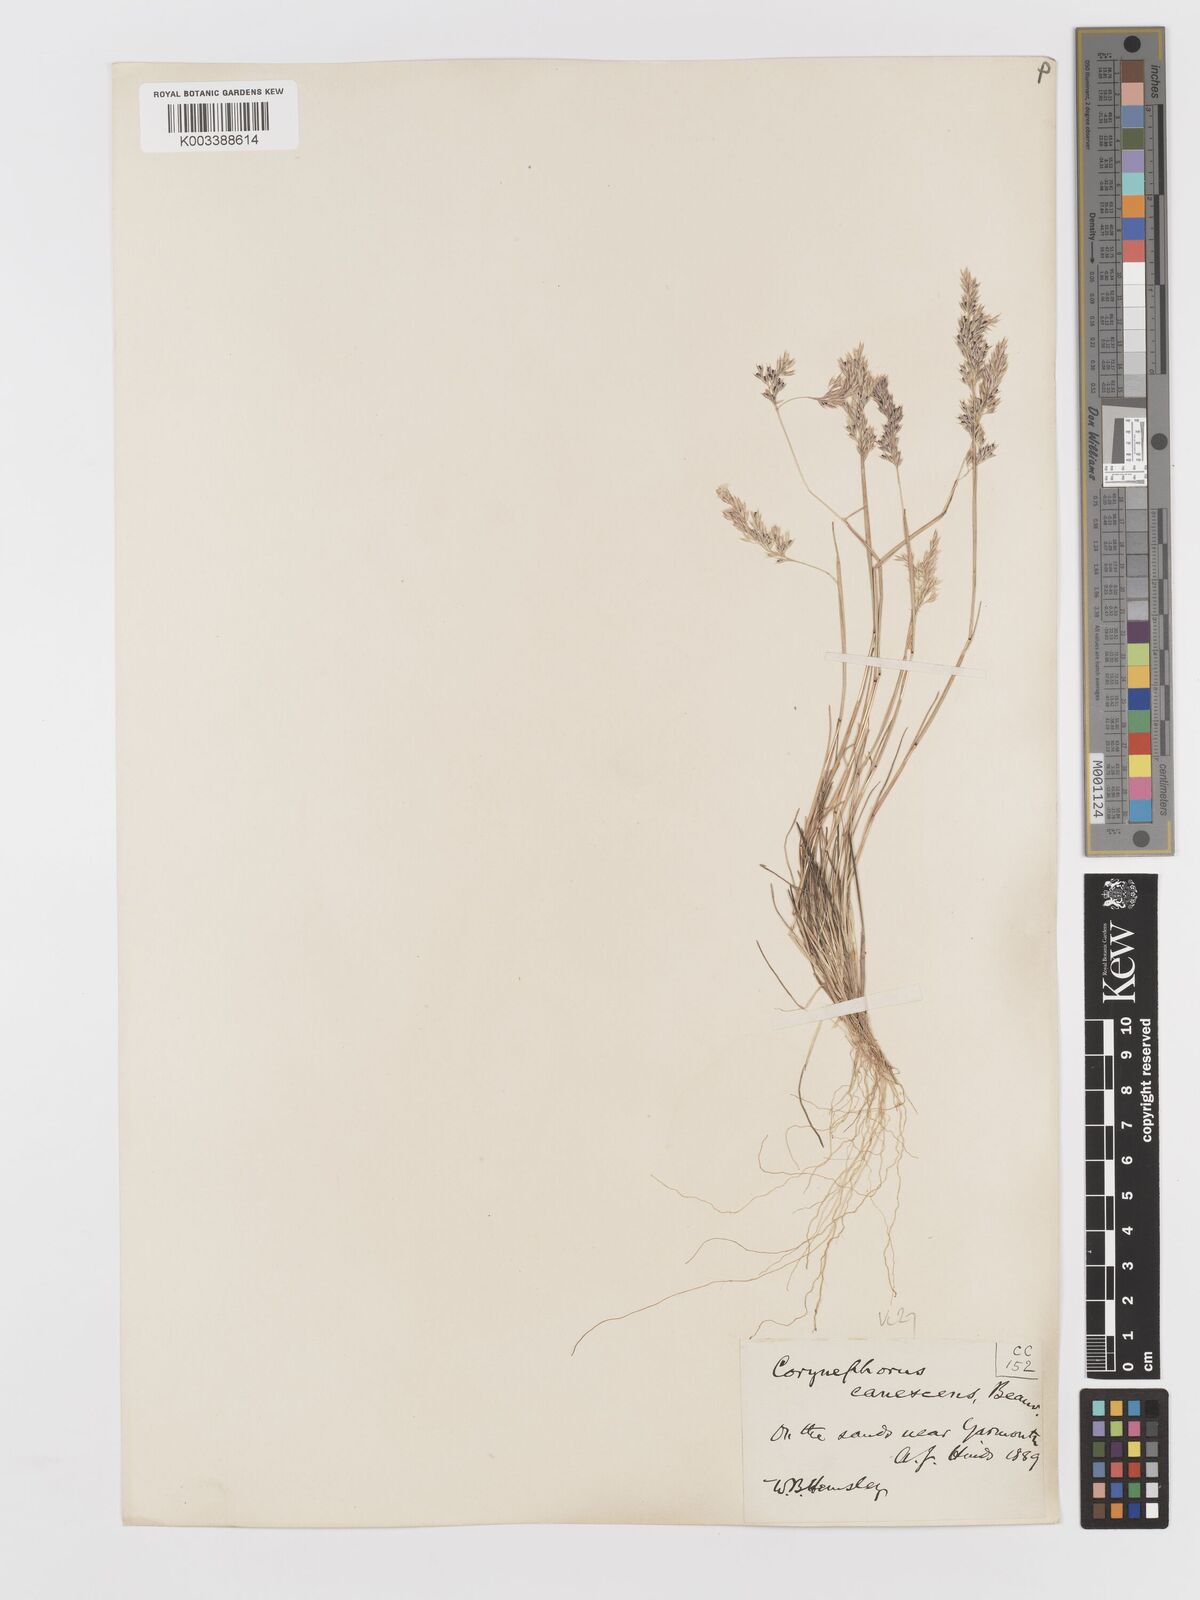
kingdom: Plantae
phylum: Tracheophyta
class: Liliopsida
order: Poales
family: Poaceae
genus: Corynephorus
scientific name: Corynephorus canescens
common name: Grey hair-grass
